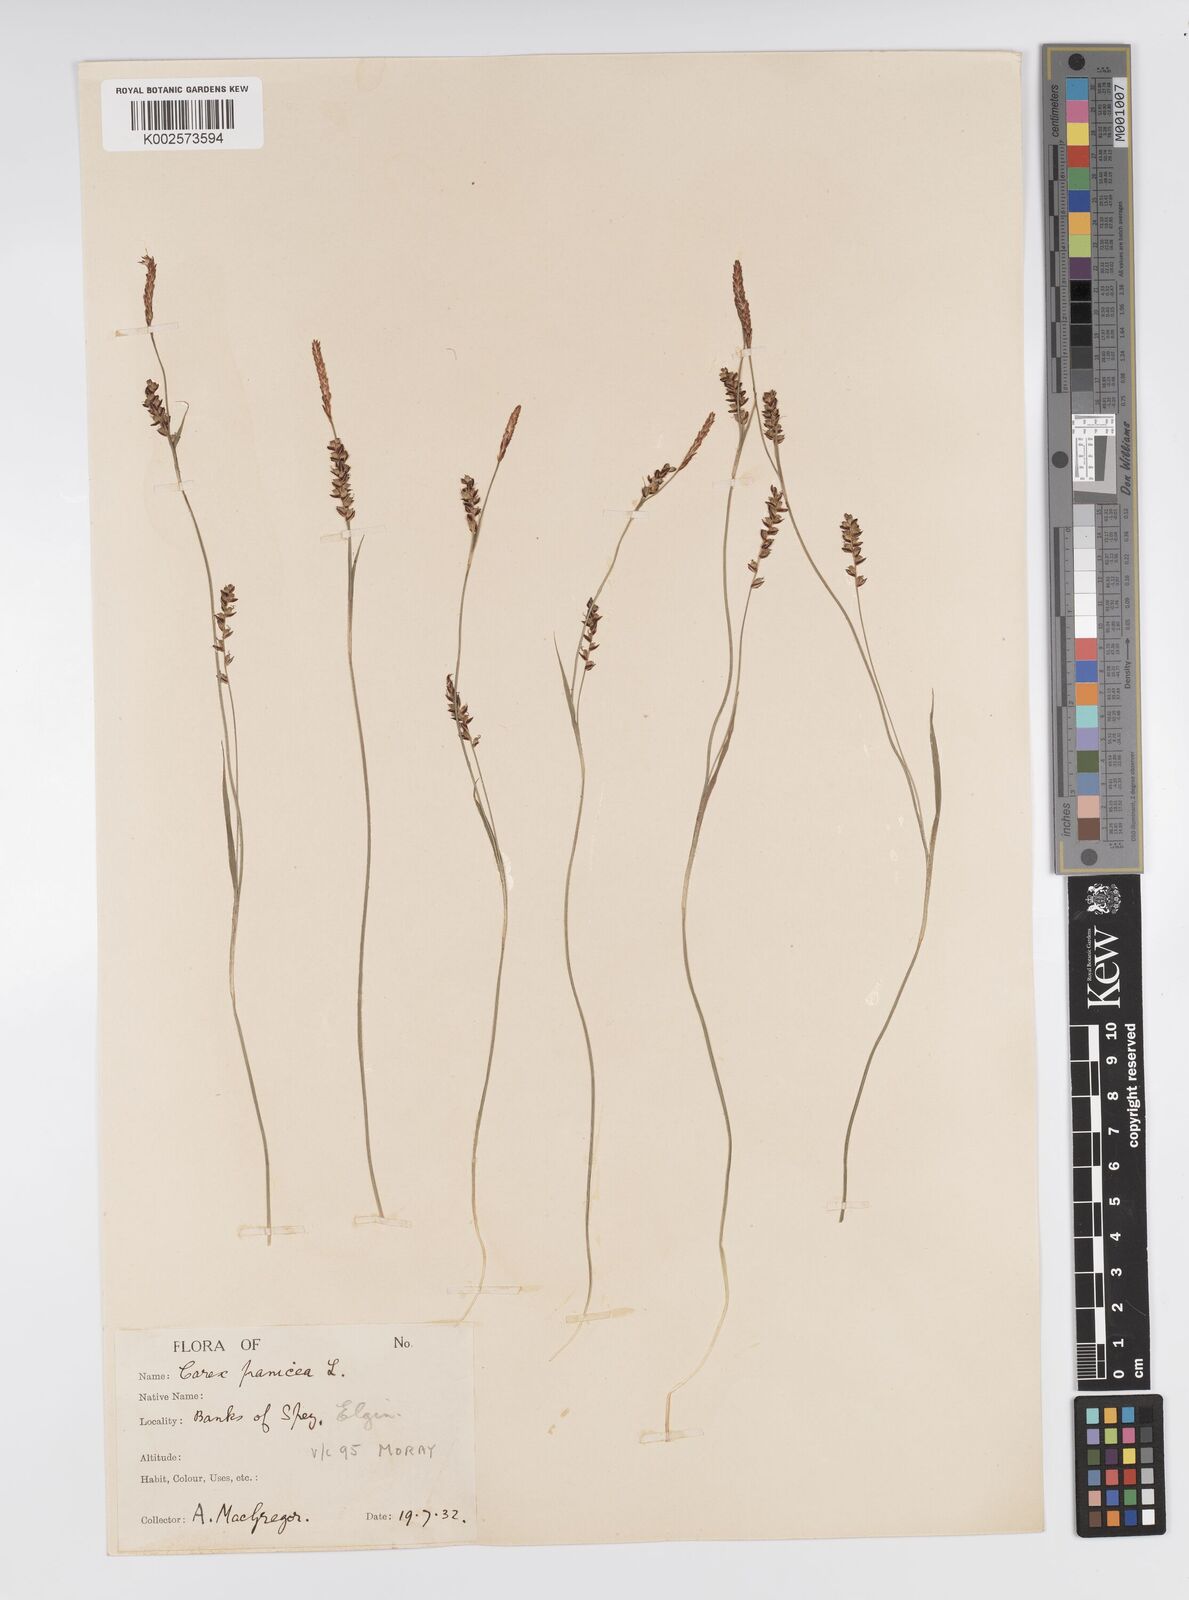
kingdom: Plantae
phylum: Tracheophyta
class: Liliopsida
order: Poales
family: Cyperaceae
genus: Carex
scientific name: Carex panicea
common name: Carnation sedge
